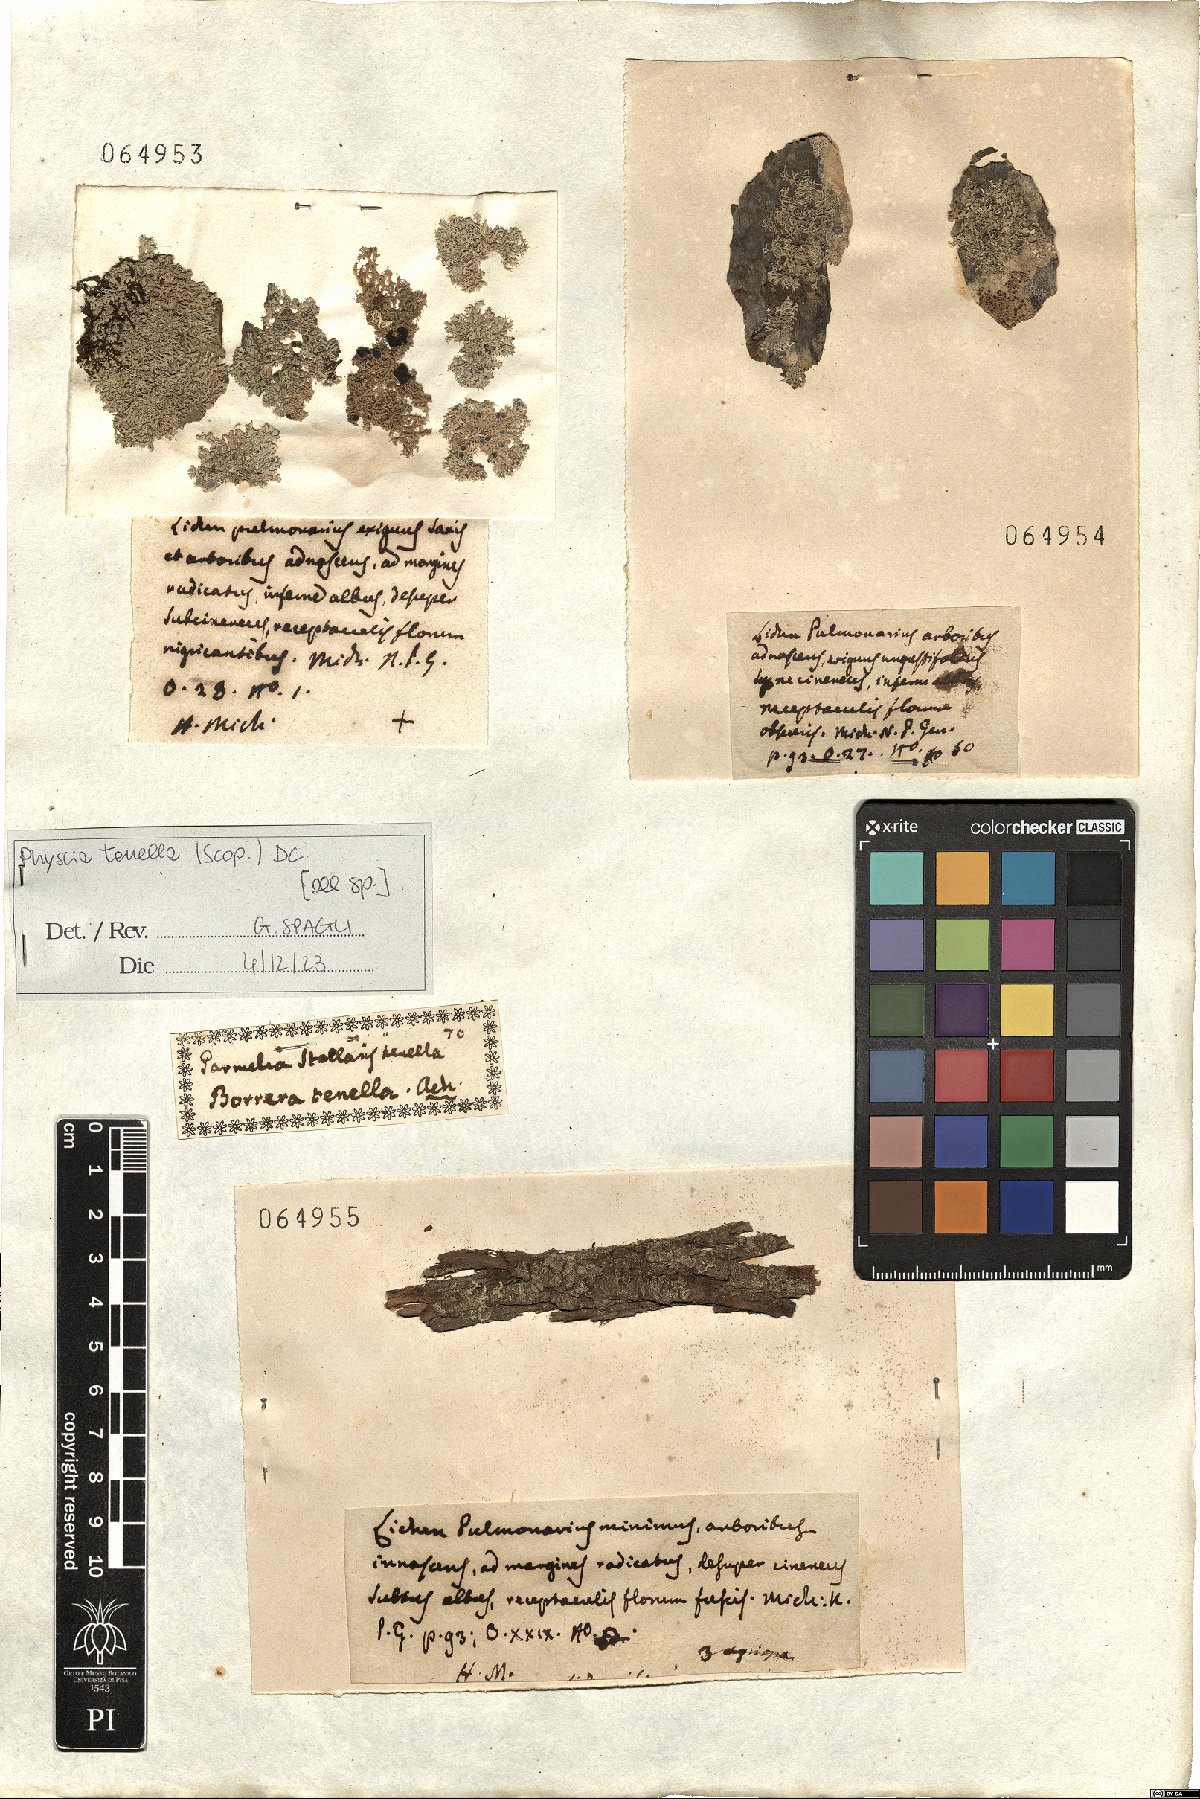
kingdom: Fungi
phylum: Ascomycota
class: Lecanoromycetes
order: Caliciales
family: Physciaceae
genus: Physcia
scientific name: Physcia tenella
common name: Fringed rosette lichen
